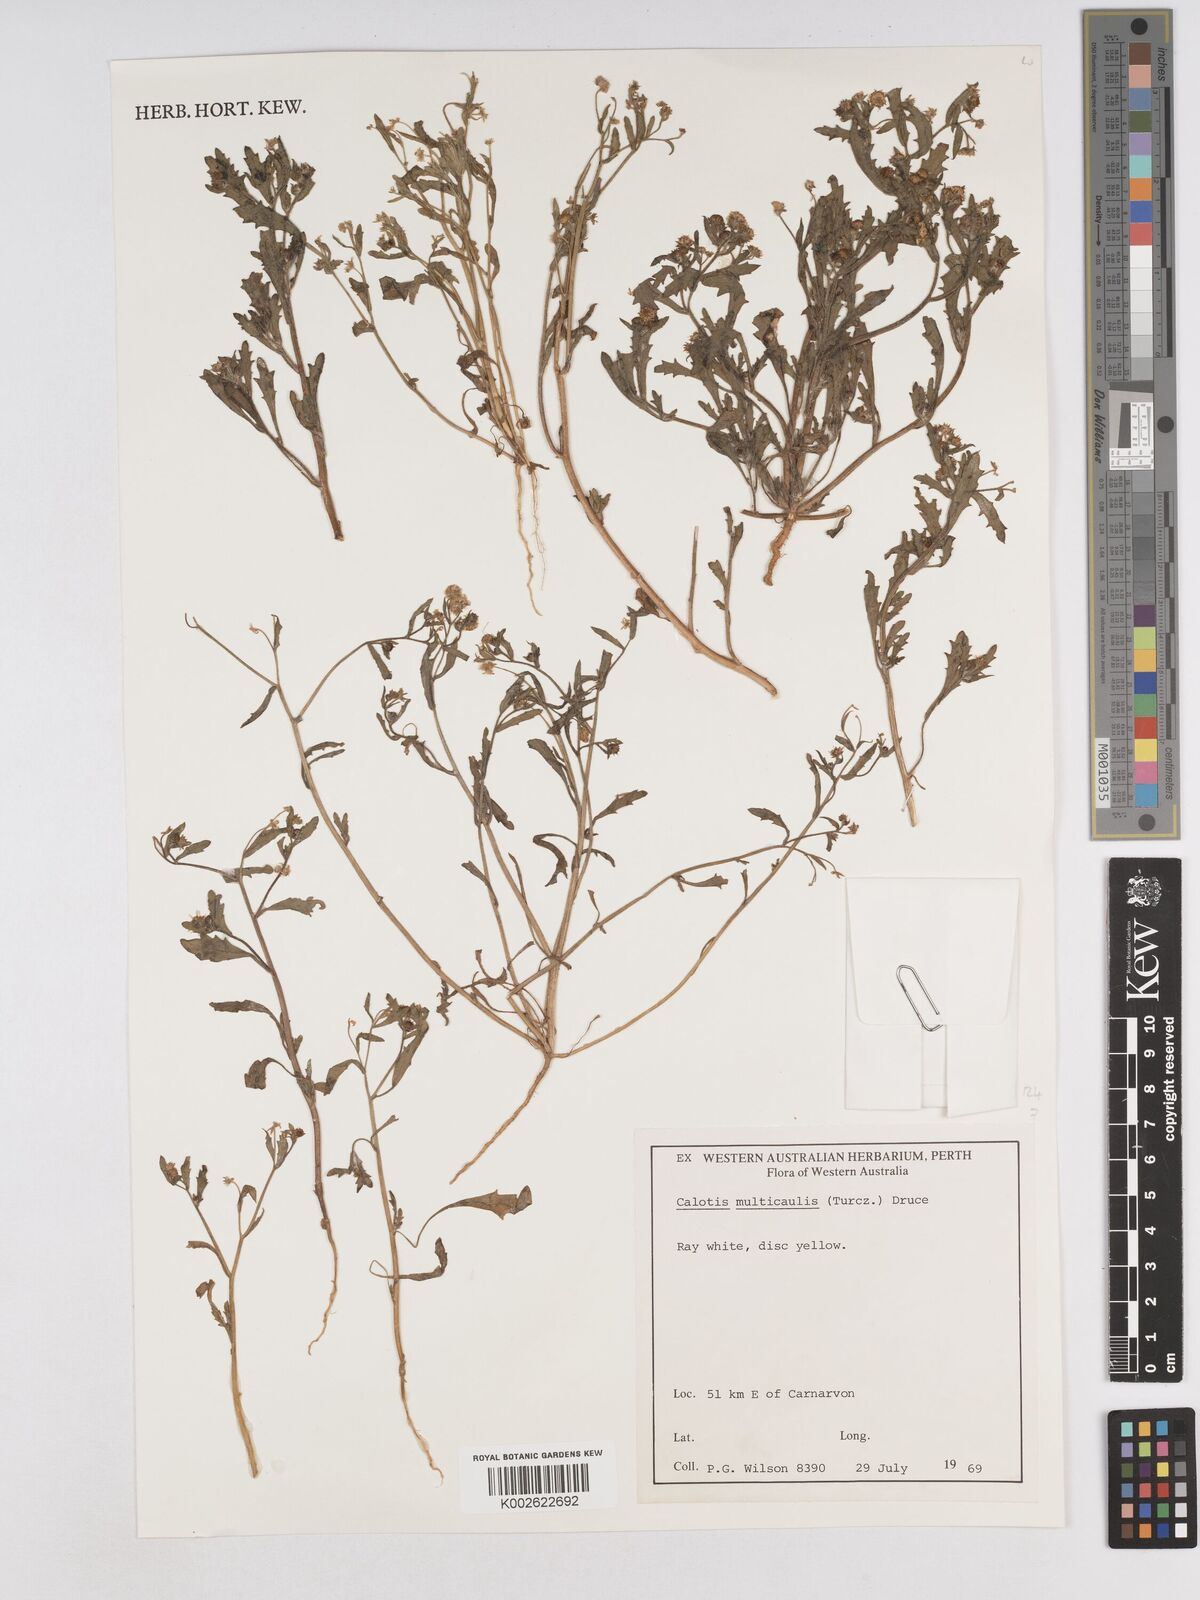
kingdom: Plantae
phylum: Tracheophyta
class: Magnoliopsida
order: Asterales
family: Asteraceae
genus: Calotis
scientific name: Calotis multicaulis
